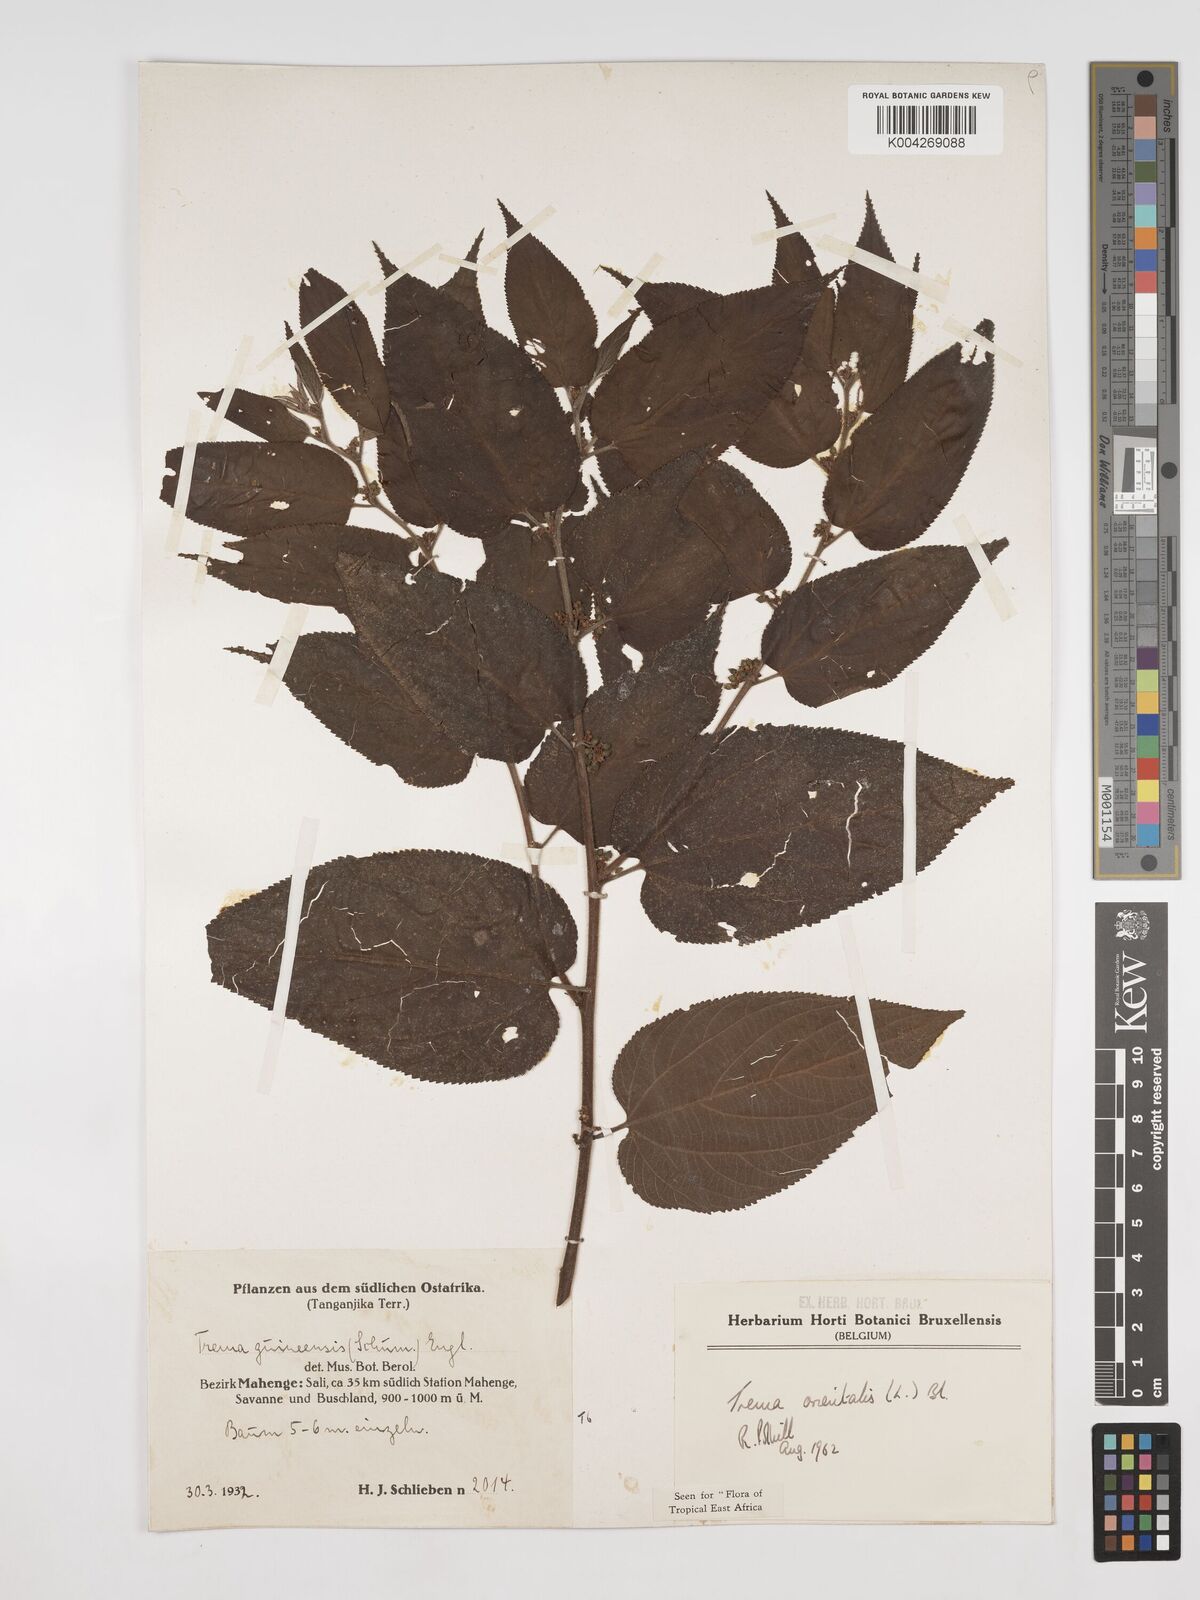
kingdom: Plantae
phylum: Tracheophyta
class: Magnoliopsida
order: Rosales
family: Cannabaceae
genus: Trema
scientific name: Trema orientale
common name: Indian charcoal tree
